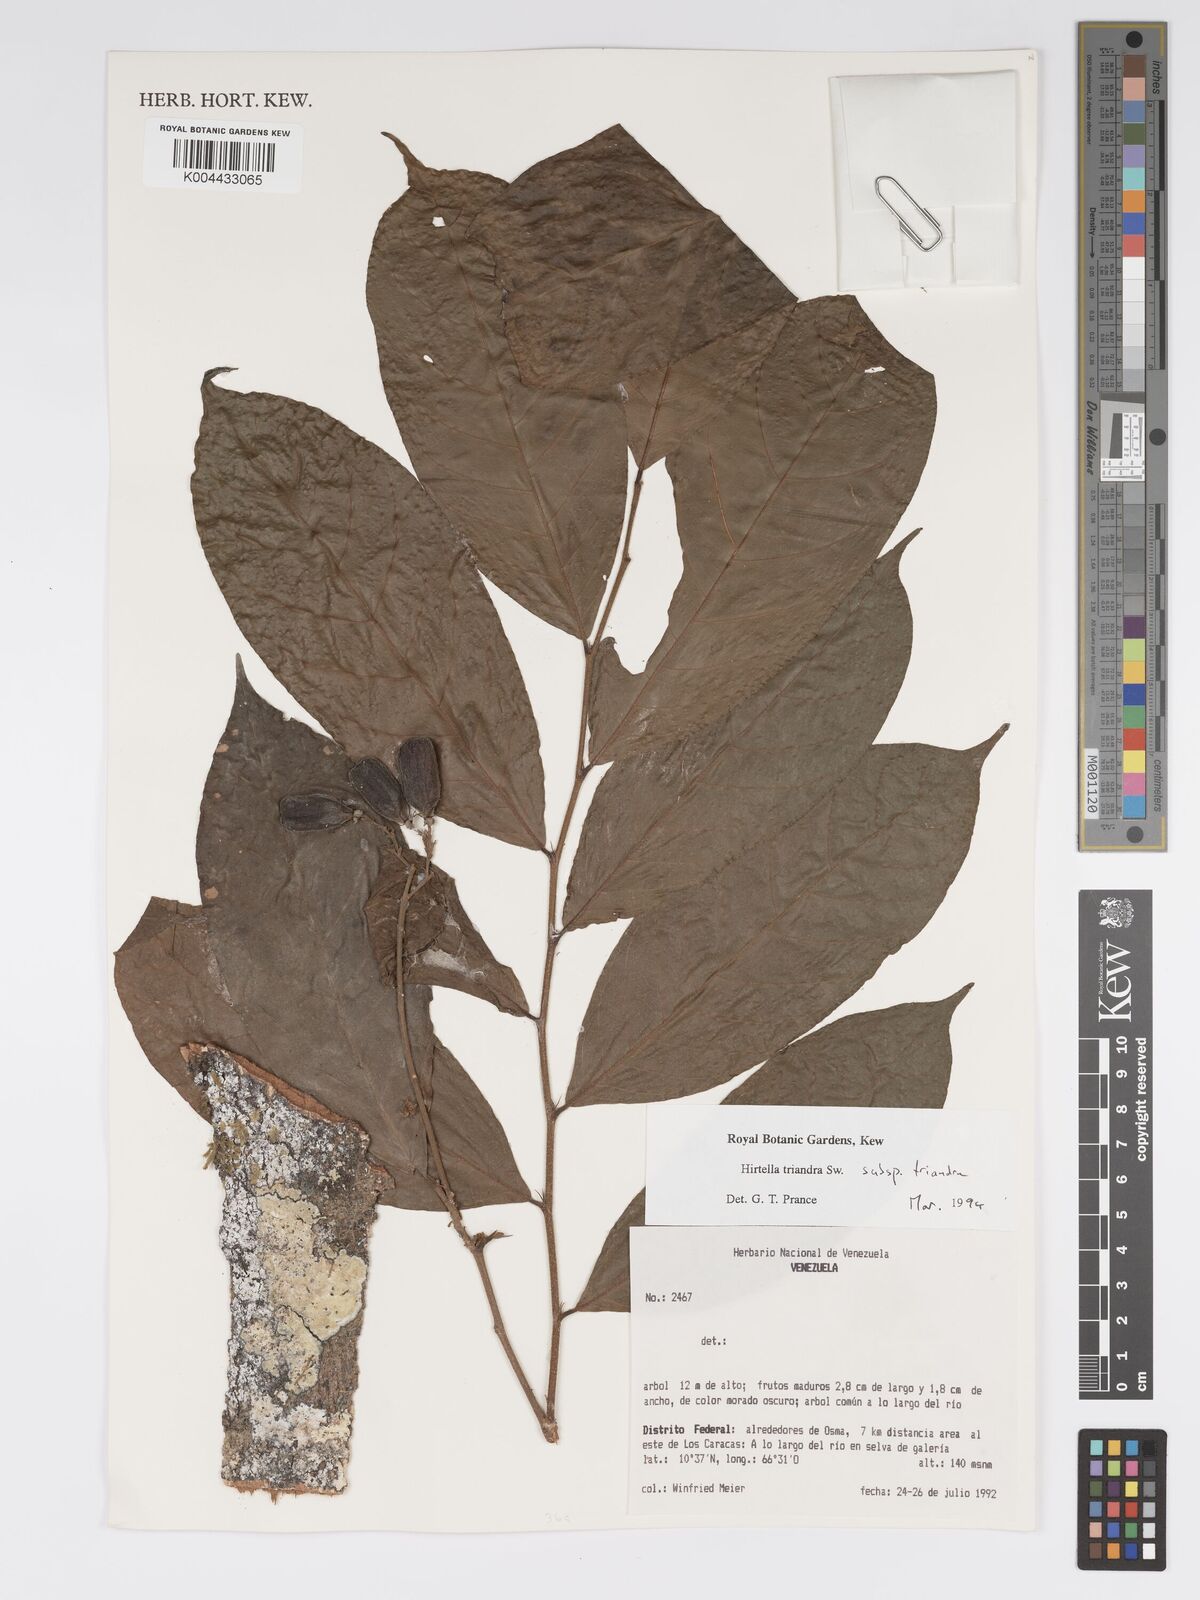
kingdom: Plantae
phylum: Tracheophyta
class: Magnoliopsida
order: Malpighiales
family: Chrysobalanaceae
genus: Hirtella
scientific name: Hirtella triandra
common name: Hairy plum
